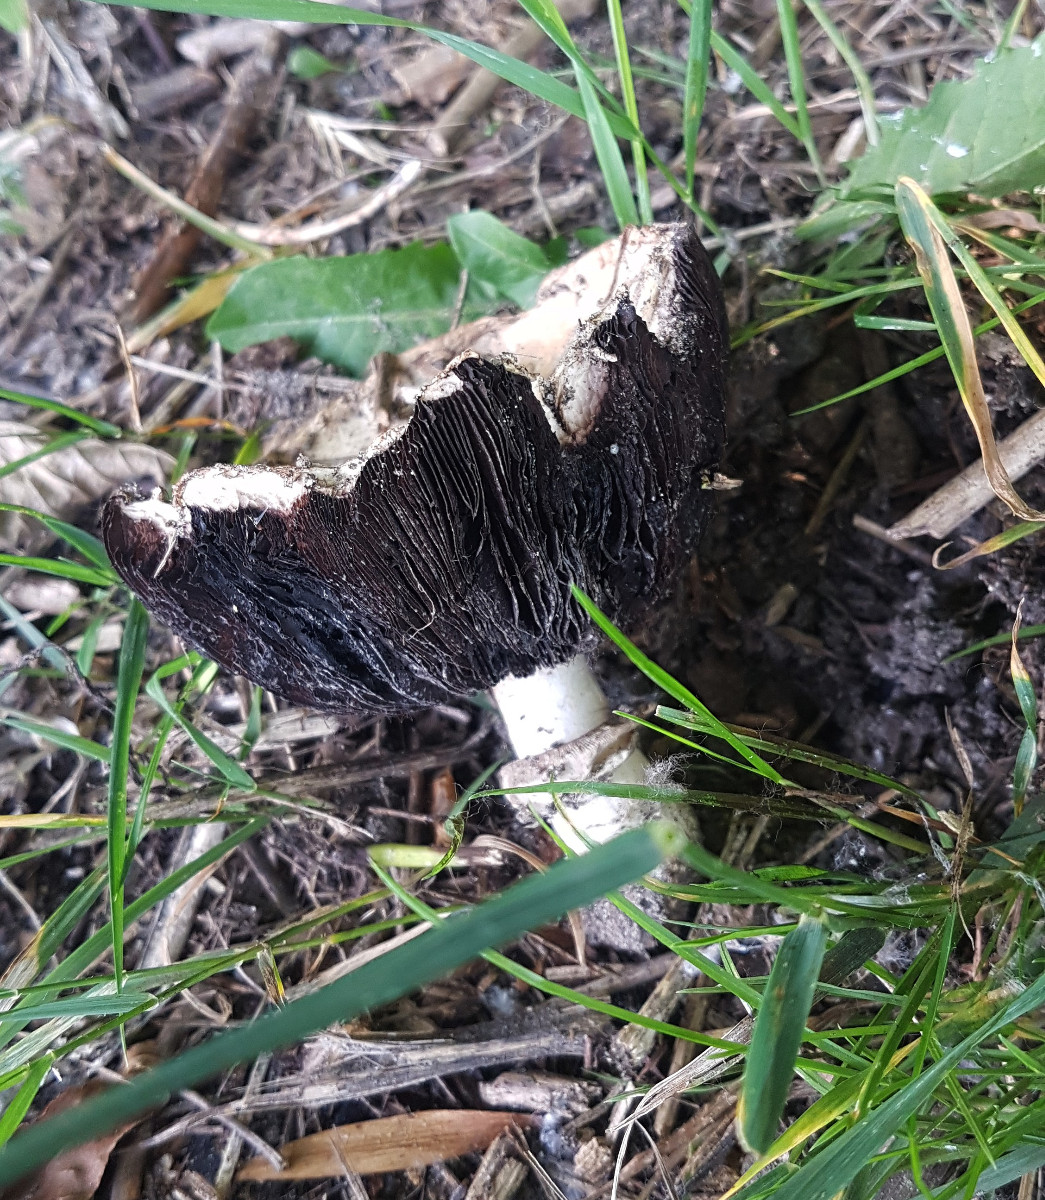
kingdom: Fungi
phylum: Basidiomycota
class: Agaricomycetes
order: Agaricales
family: Agaricaceae
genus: Agaricus
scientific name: Agaricus bitorquis
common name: vej-champignon
